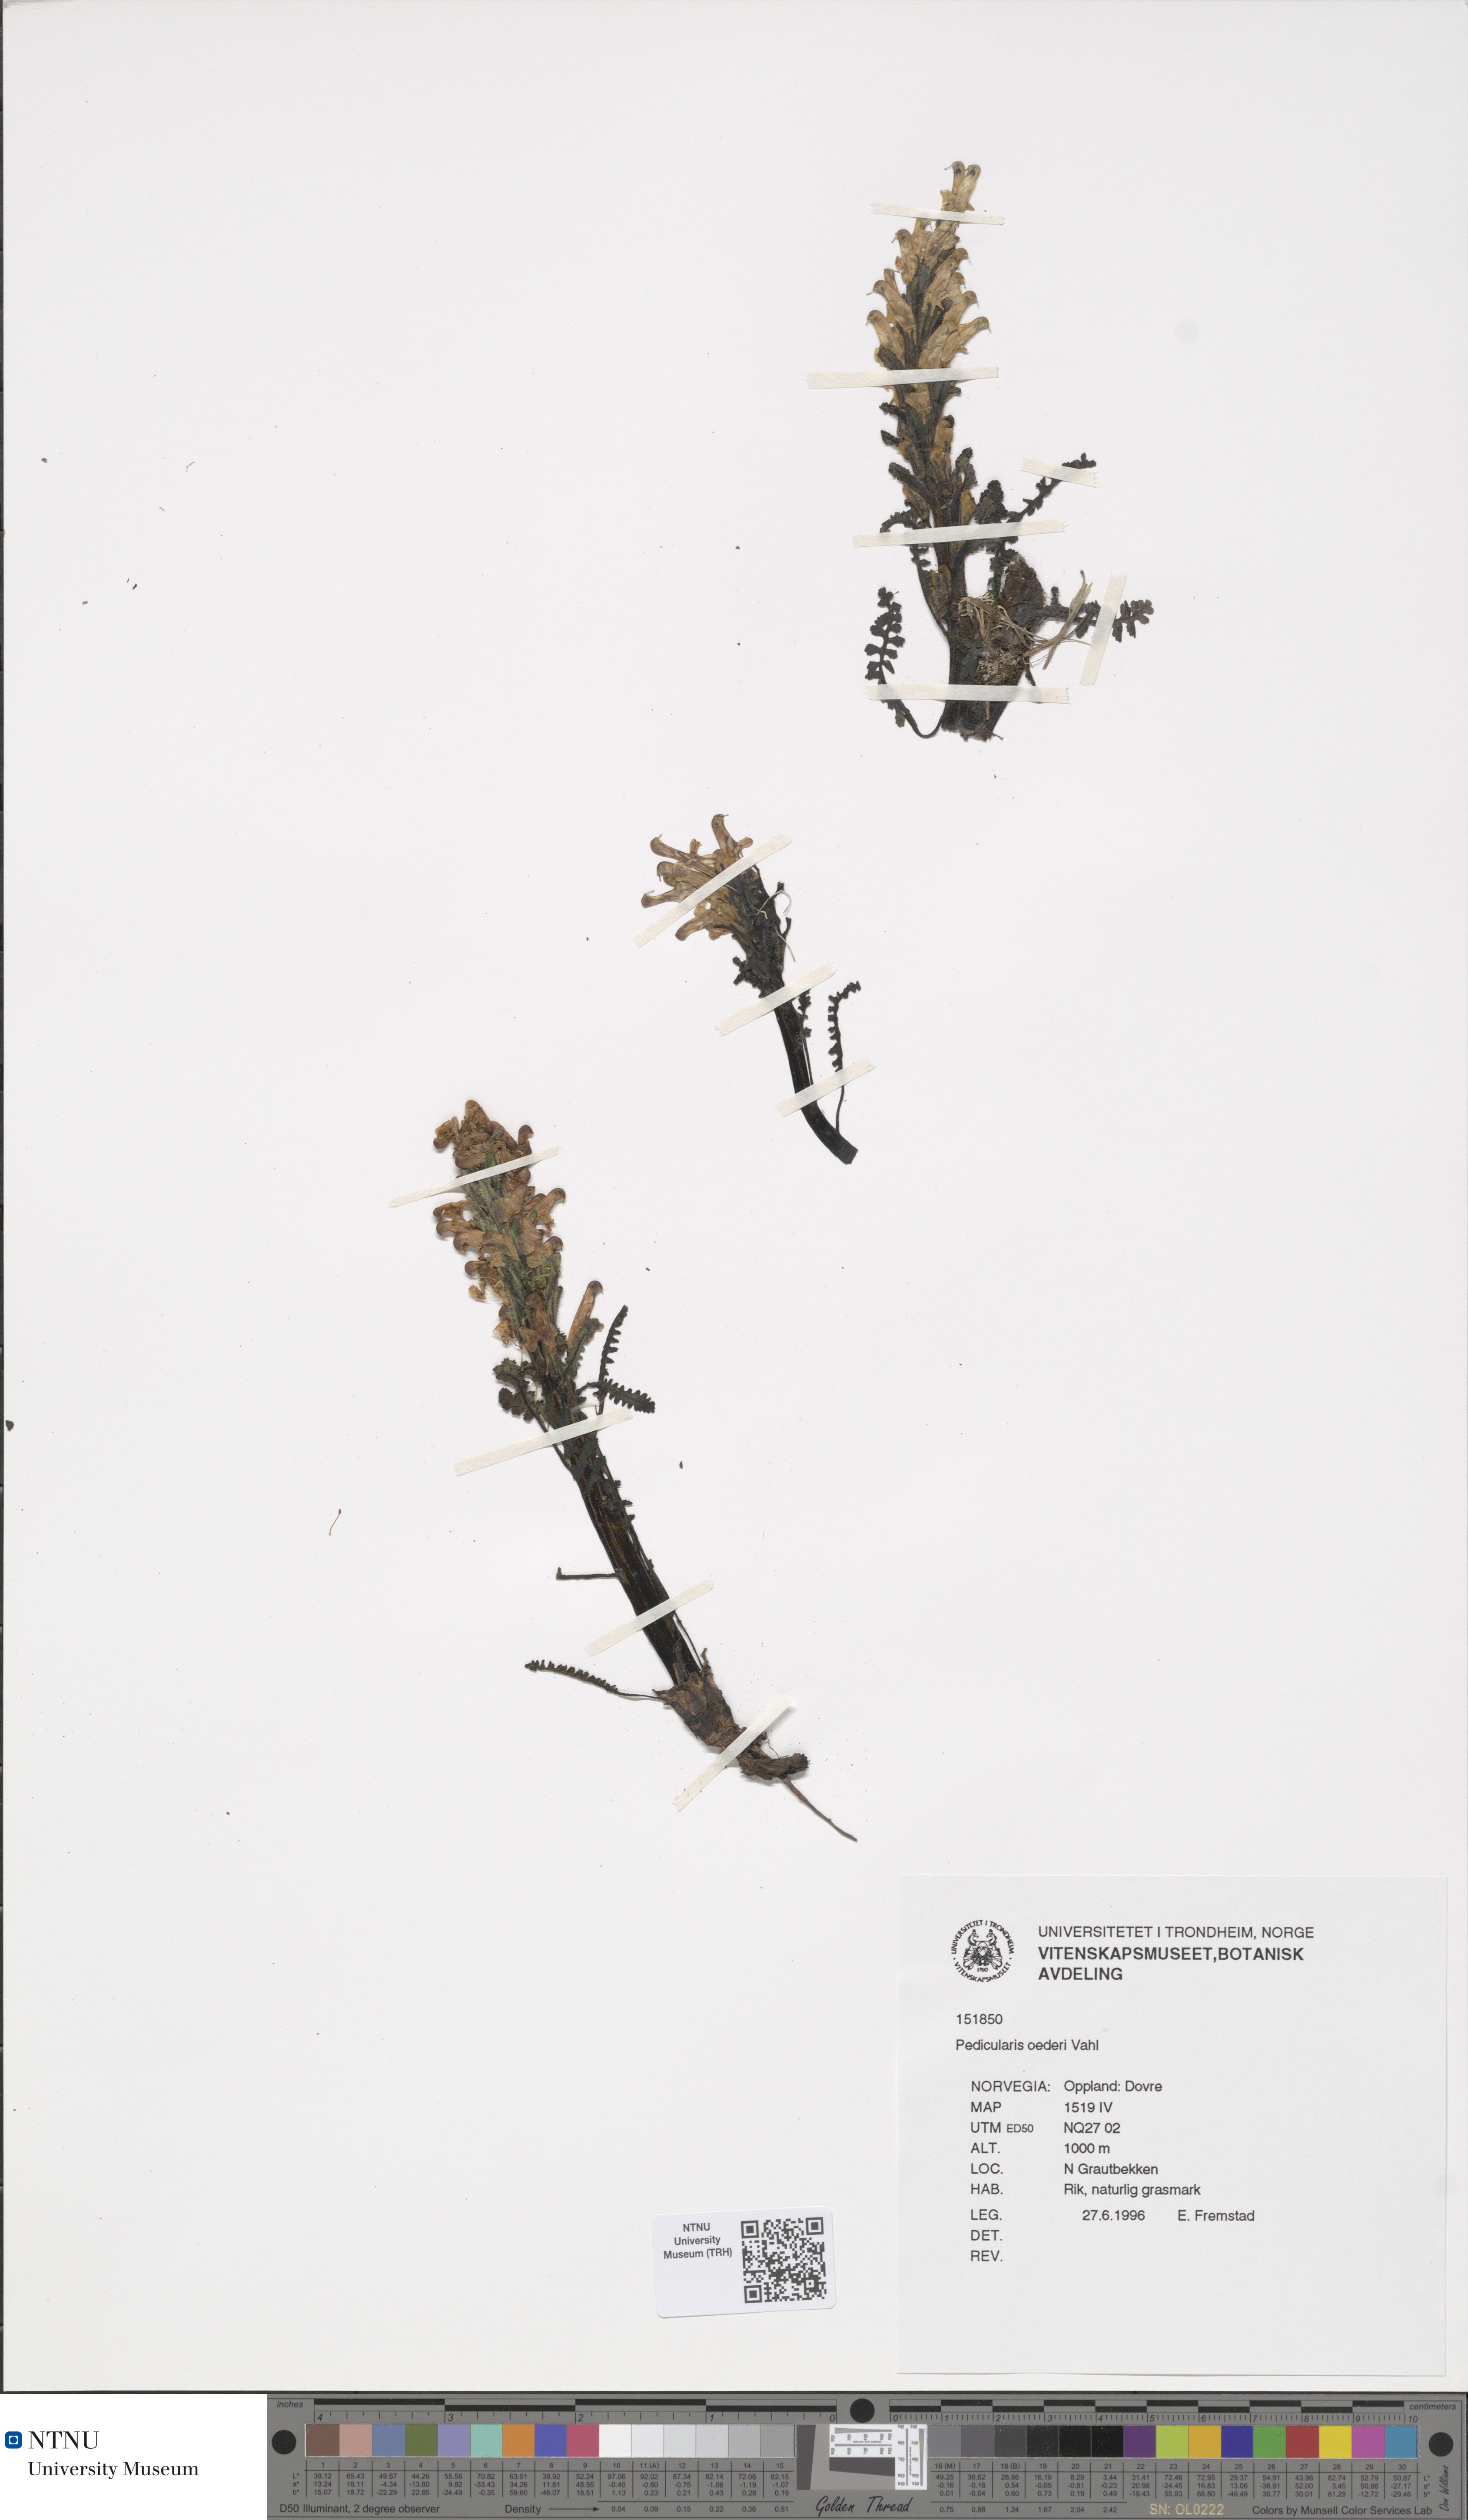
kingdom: Plantae
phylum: Tracheophyta
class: Magnoliopsida
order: Lamiales
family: Orobanchaceae
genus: Pedicularis
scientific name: Pedicularis oederi
